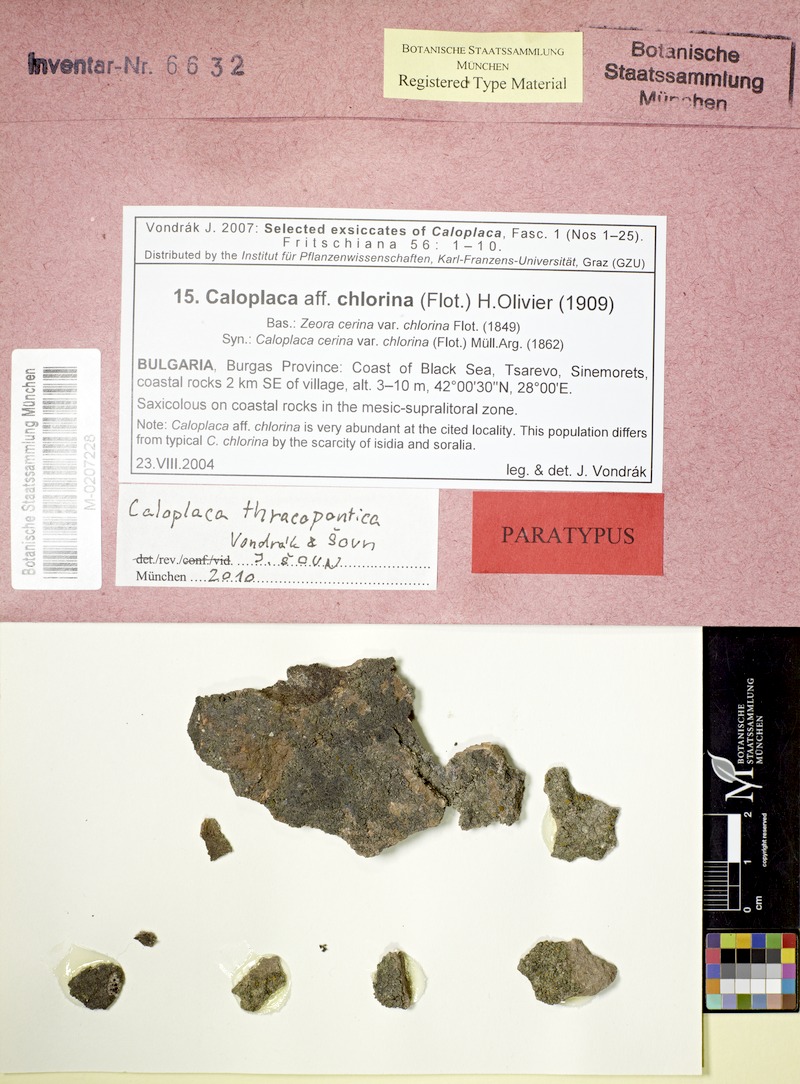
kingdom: Fungi
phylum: Ascomycota
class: Lecanoromycetes
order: Teloschistales
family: Teloschistaceae
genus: Caloplaca
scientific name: Caloplaca thracopontica
